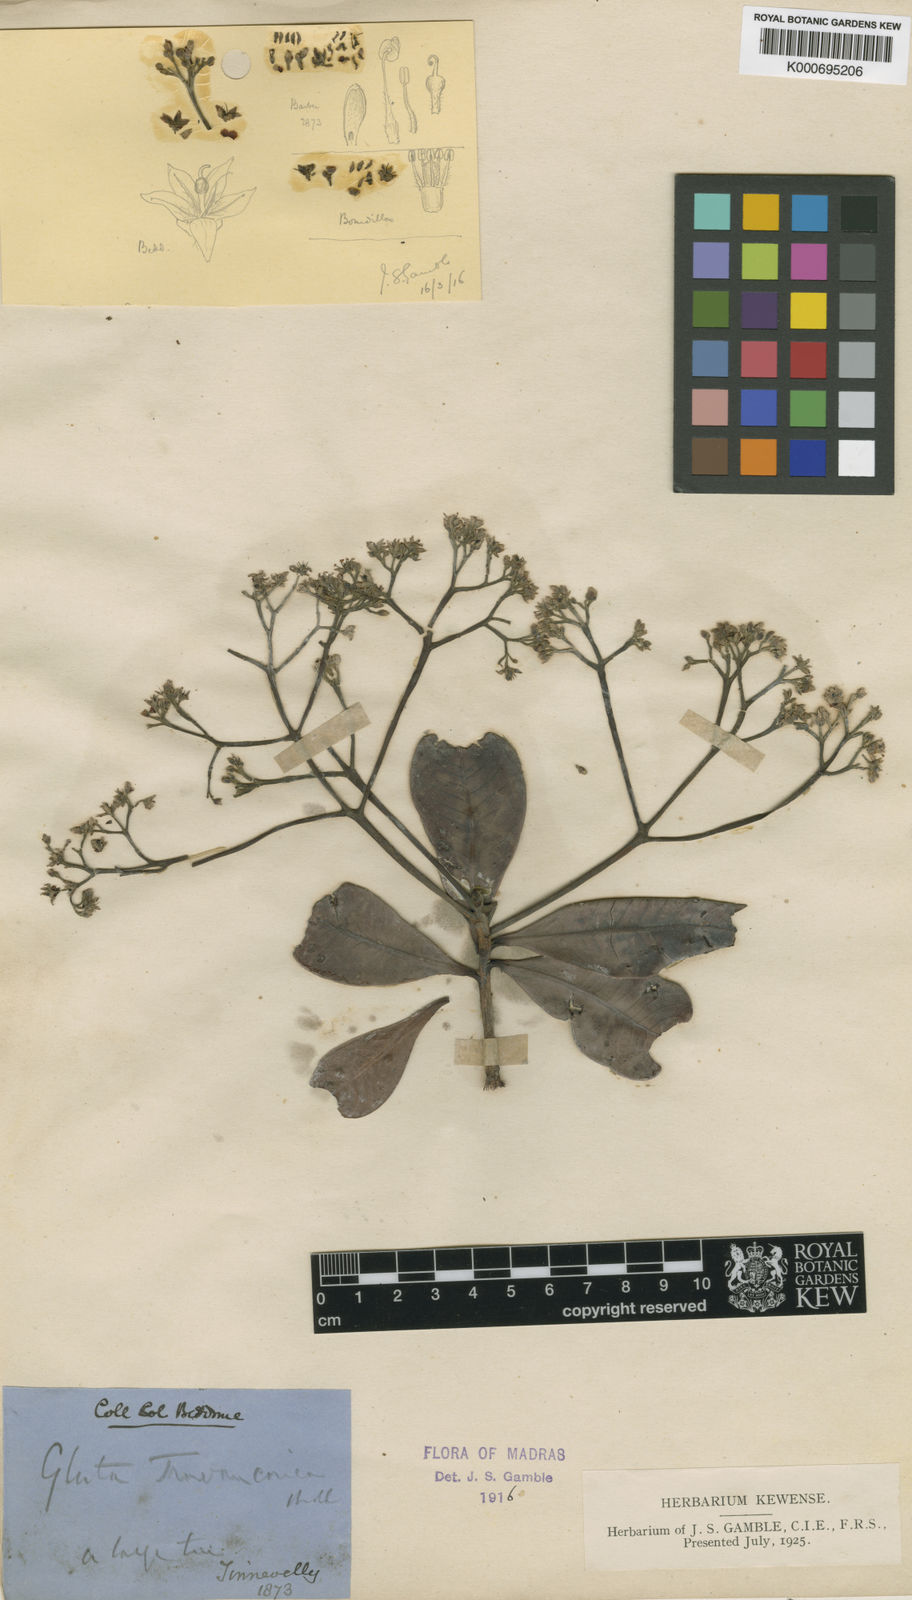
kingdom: Plantae
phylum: Tracheophyta
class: Magnoliopsida
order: Sapindales
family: Anacardiaceae
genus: Gluta
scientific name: Gluta travancorica
